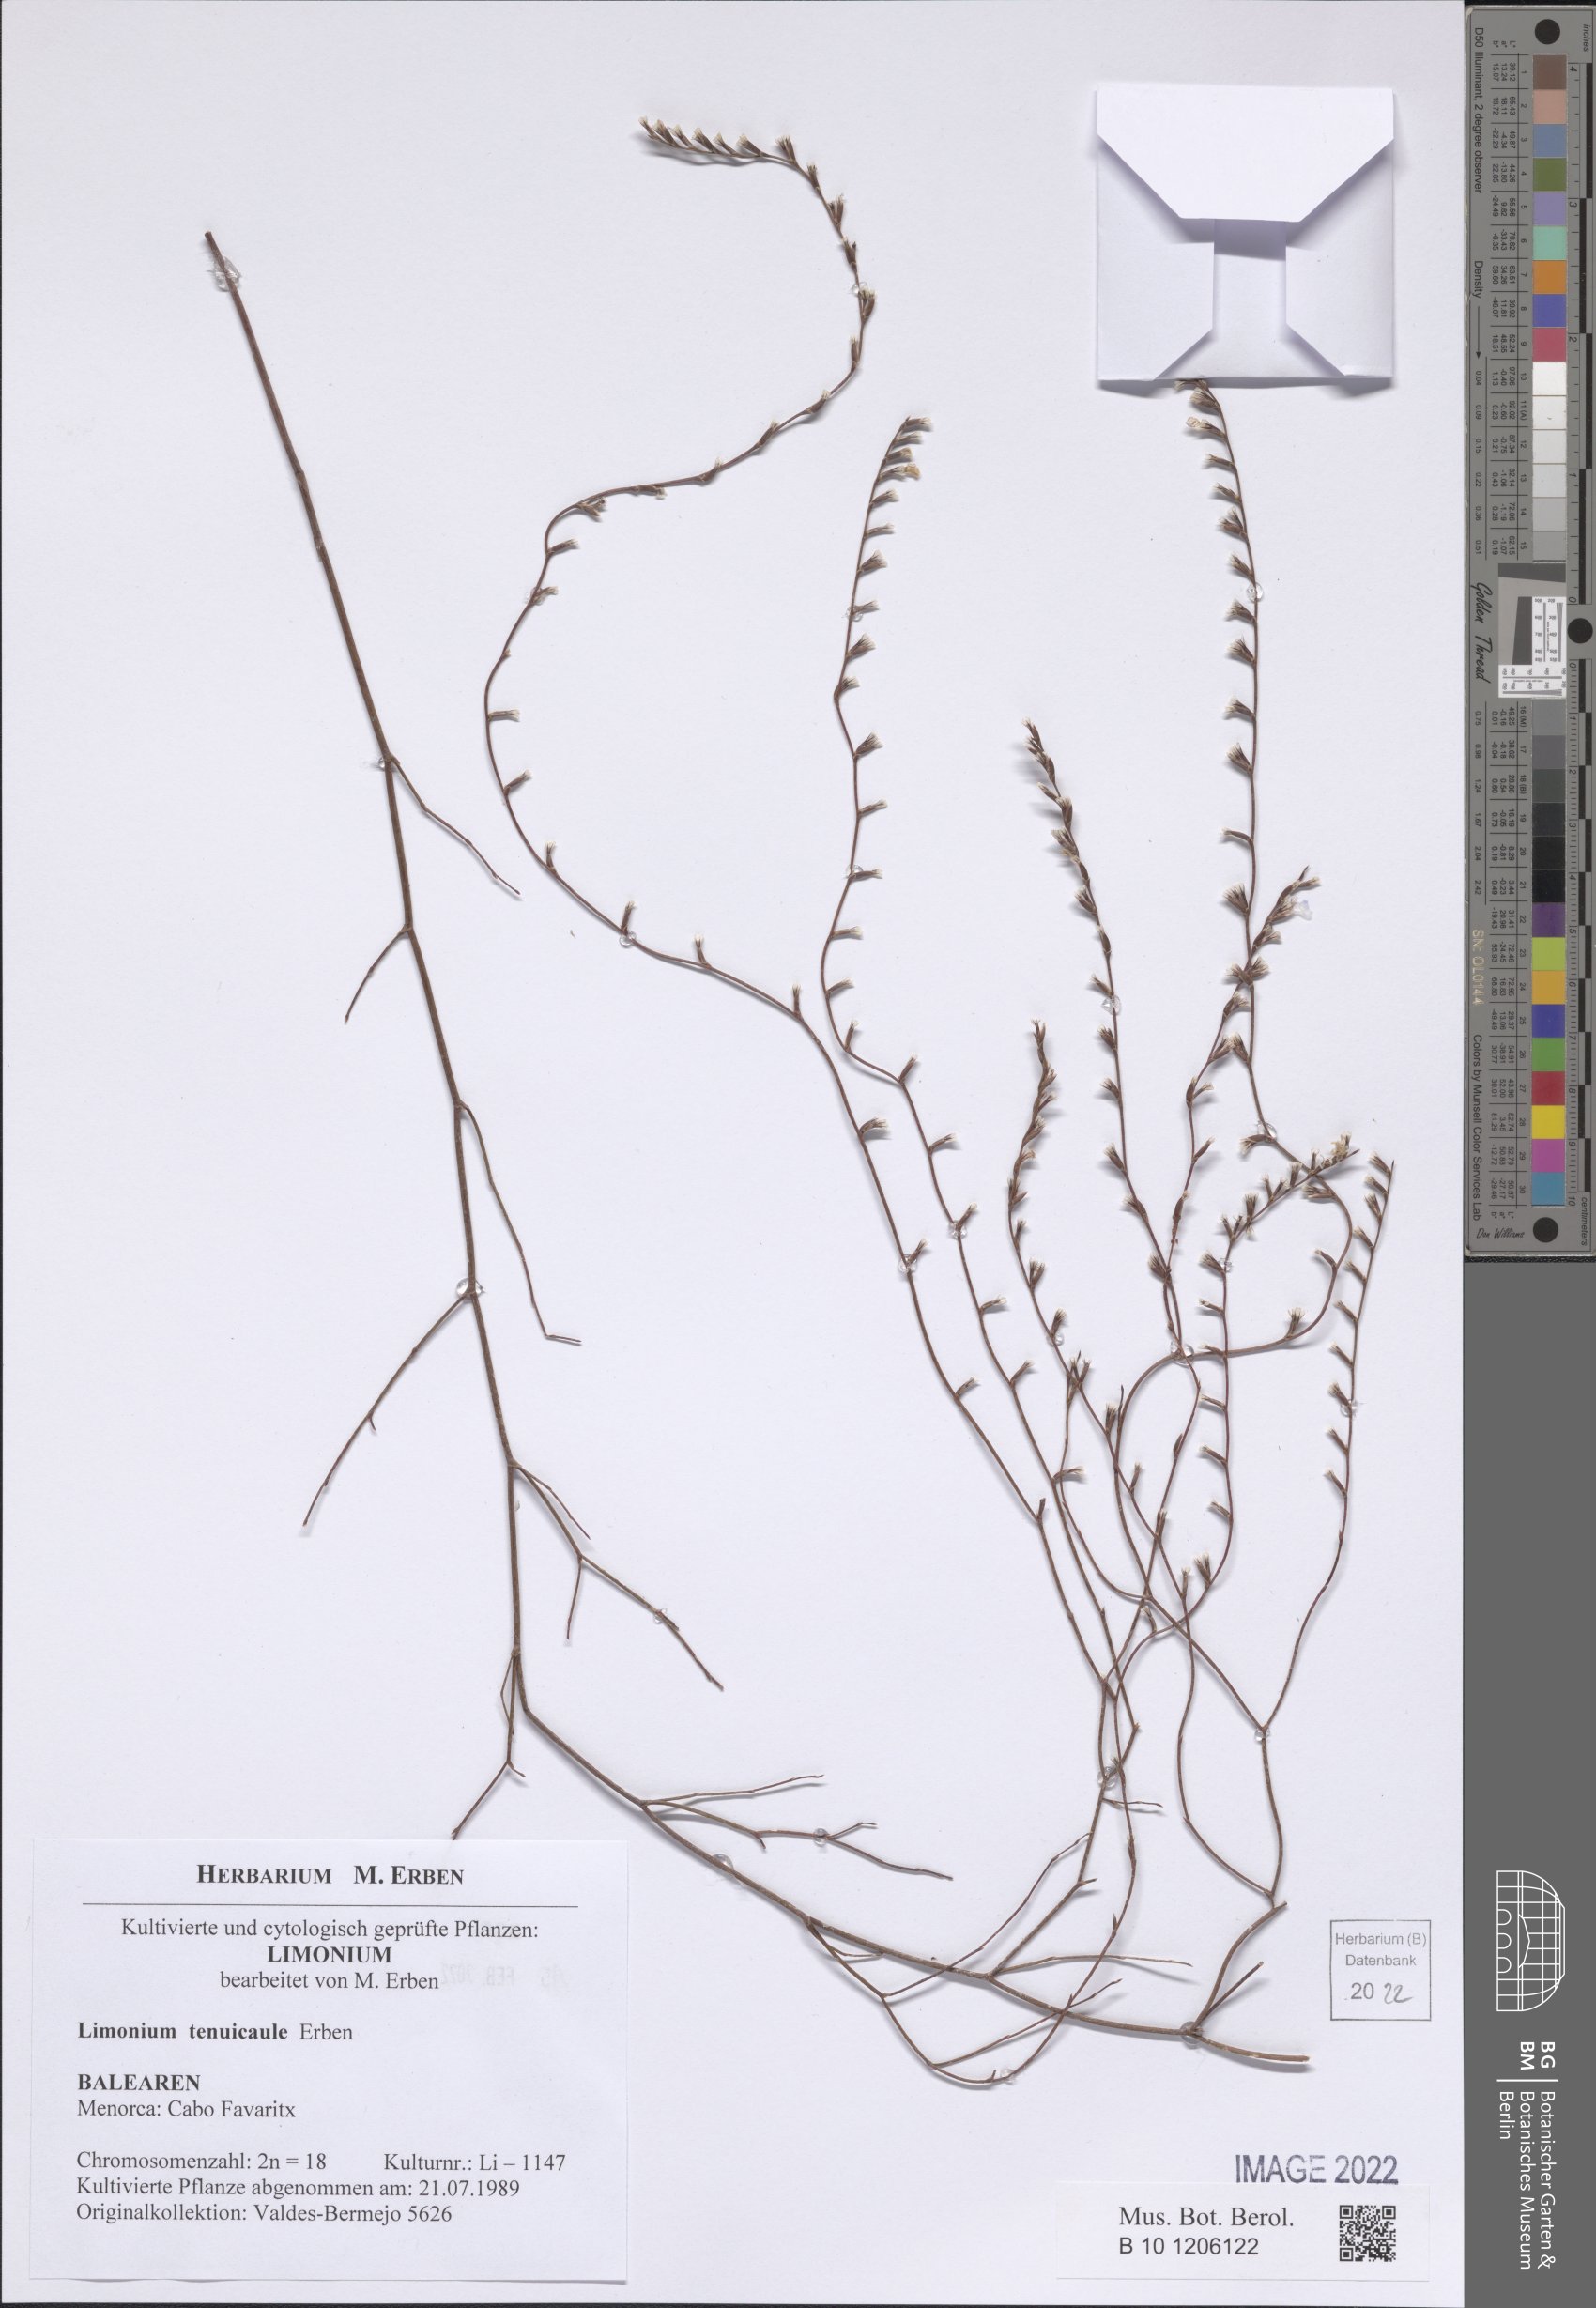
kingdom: Plantae
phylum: Tracheophyta
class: Magnoliopsida
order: Caryophyllales
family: Plumbaginaceae
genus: Limonium
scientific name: Limonium tenuicaule
